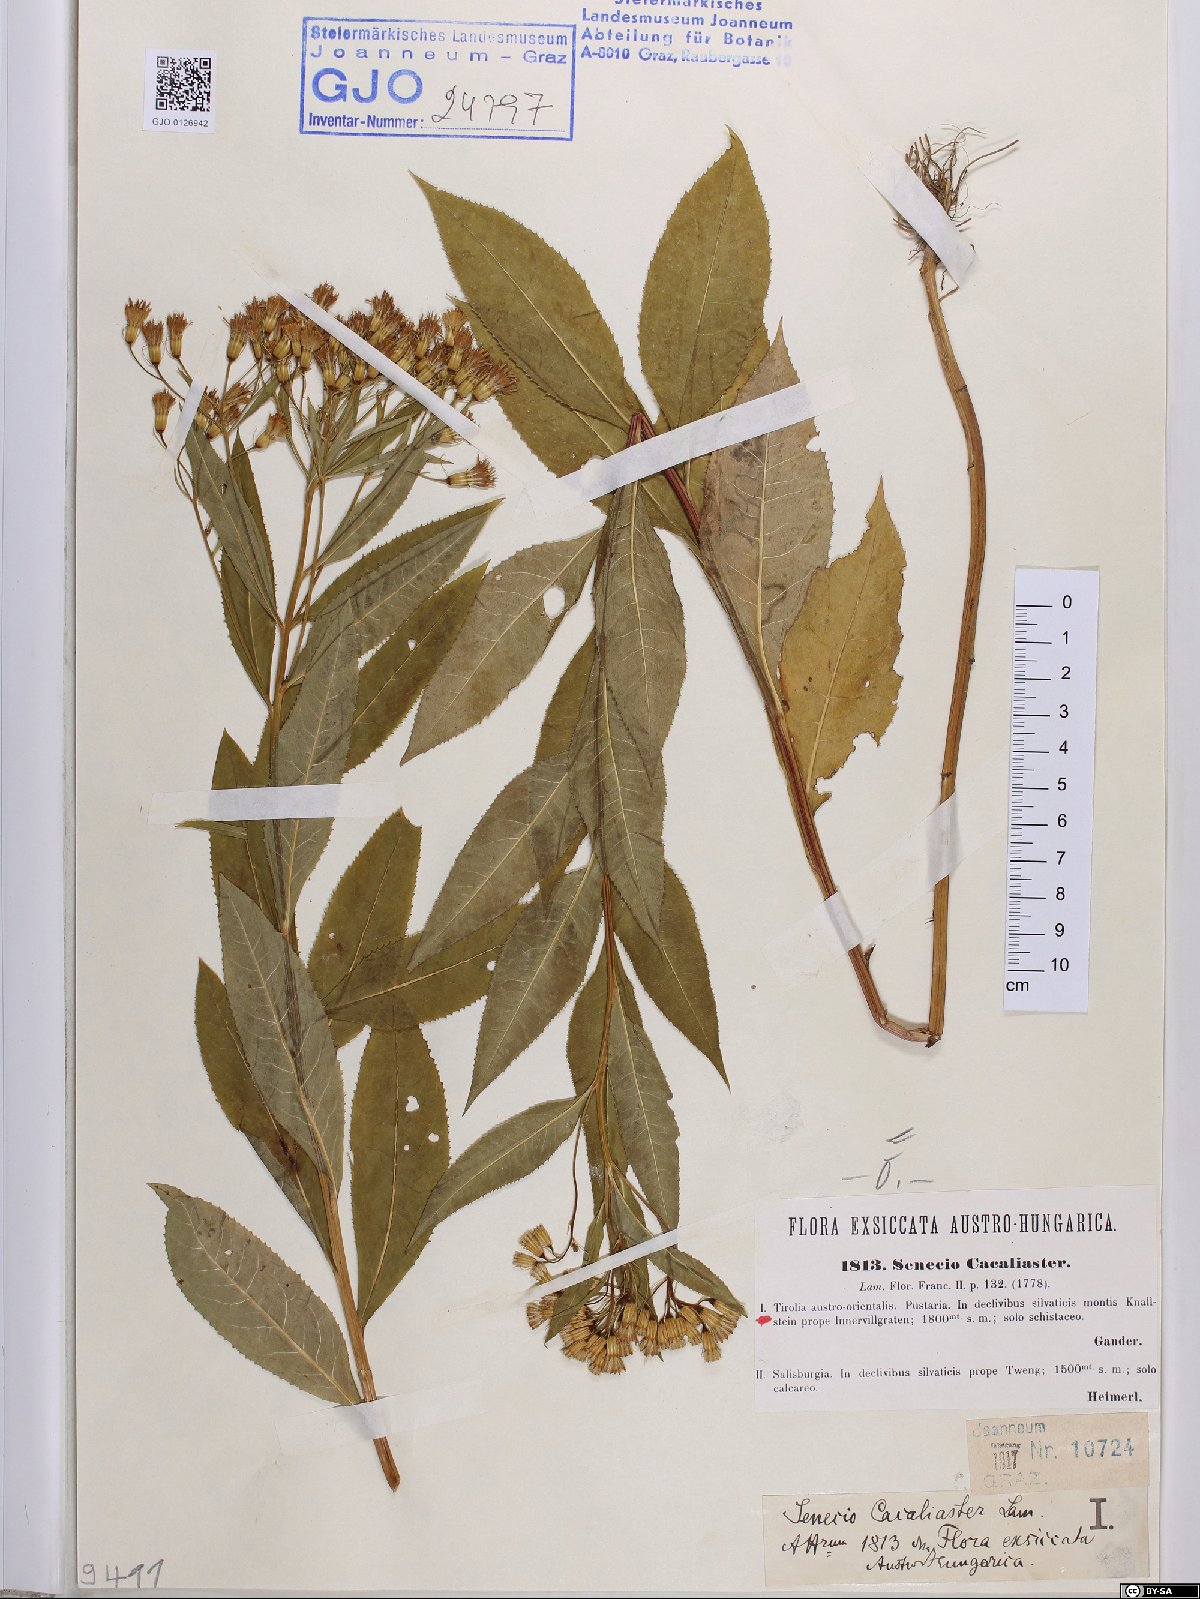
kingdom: Plantae
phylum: Tracheophyta
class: Magnoliopsida
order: Asterales
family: Asteraceae
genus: Senecio
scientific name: Senecio cacaliaster
